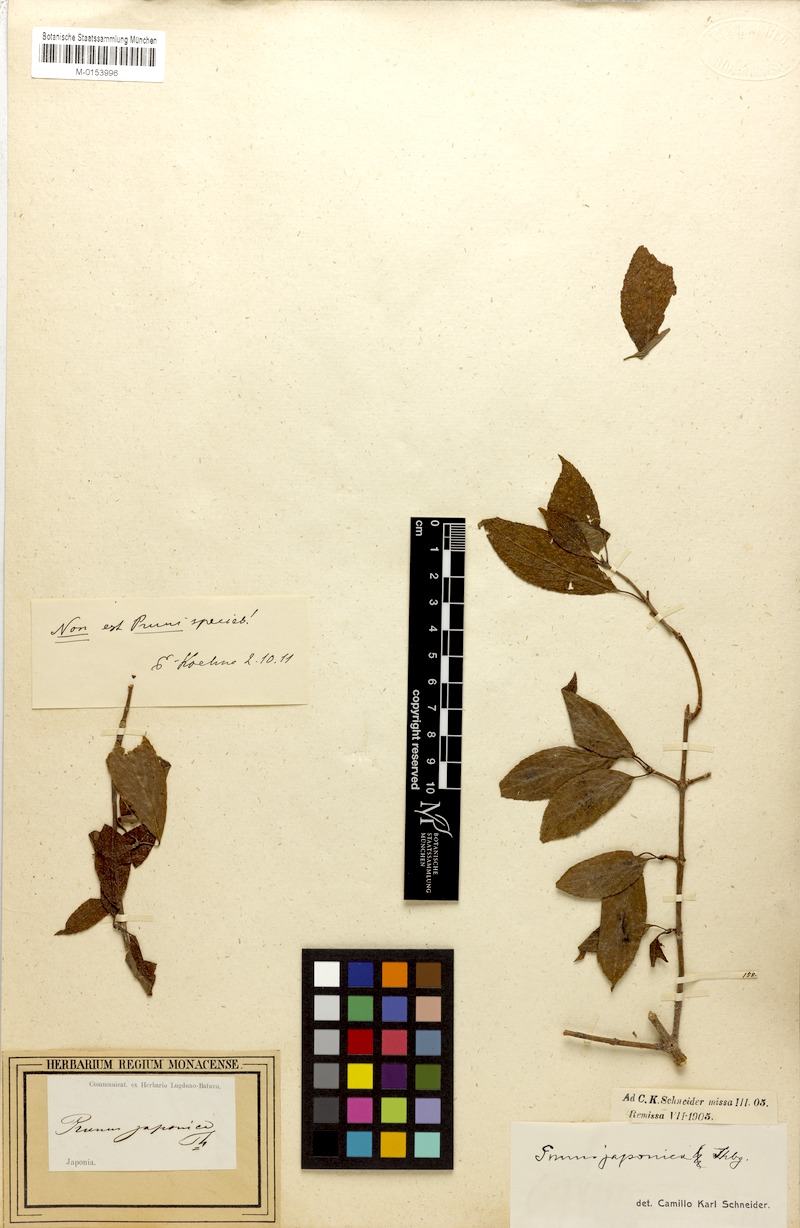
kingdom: Plantae
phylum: Tracheophyta
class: Magnoliopsida
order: Rosales
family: Rosaceae
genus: Prunus
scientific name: Prunus japonica
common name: Chinese bush cherry
